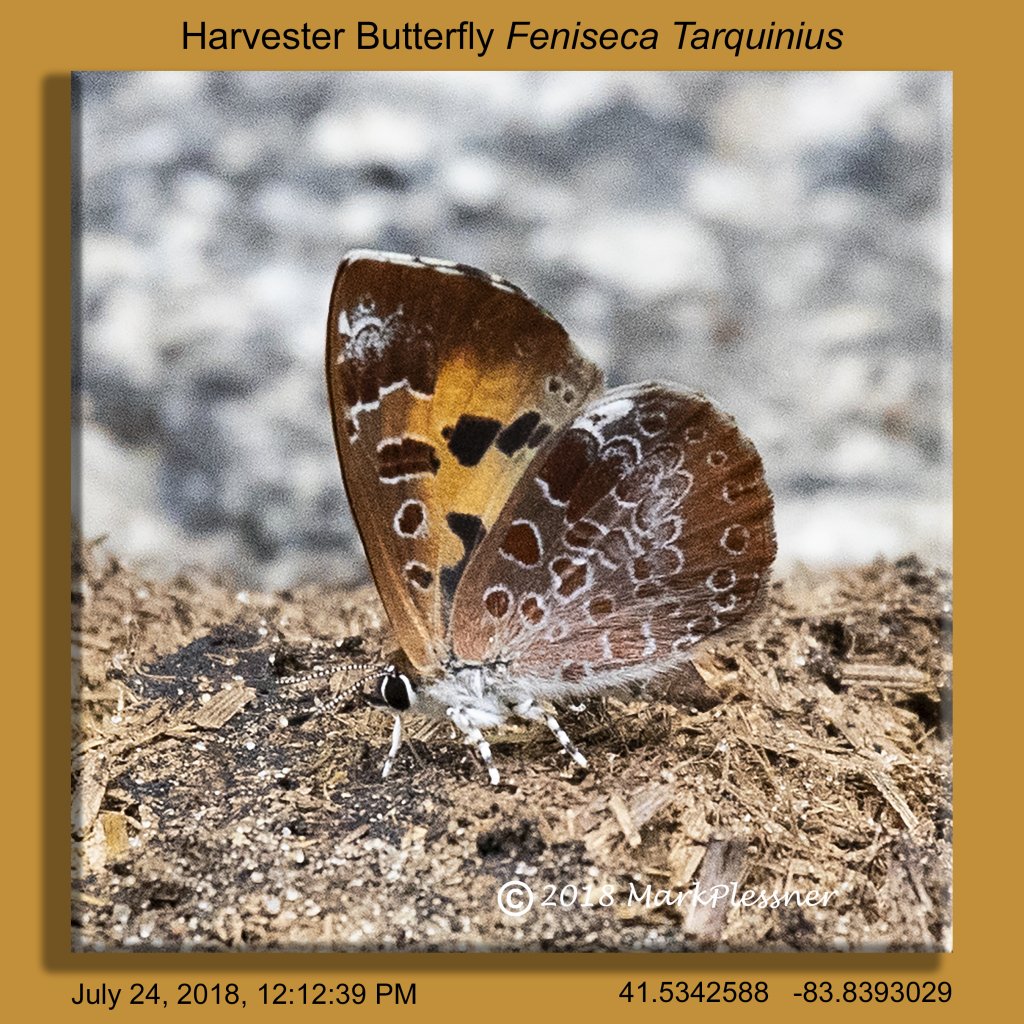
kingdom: Animalia
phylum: Arthropoda
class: Insecta
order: Lepidoptera
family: Lycaenidae
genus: Feniseca
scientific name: Feniseca tarquinius
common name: Harvester
